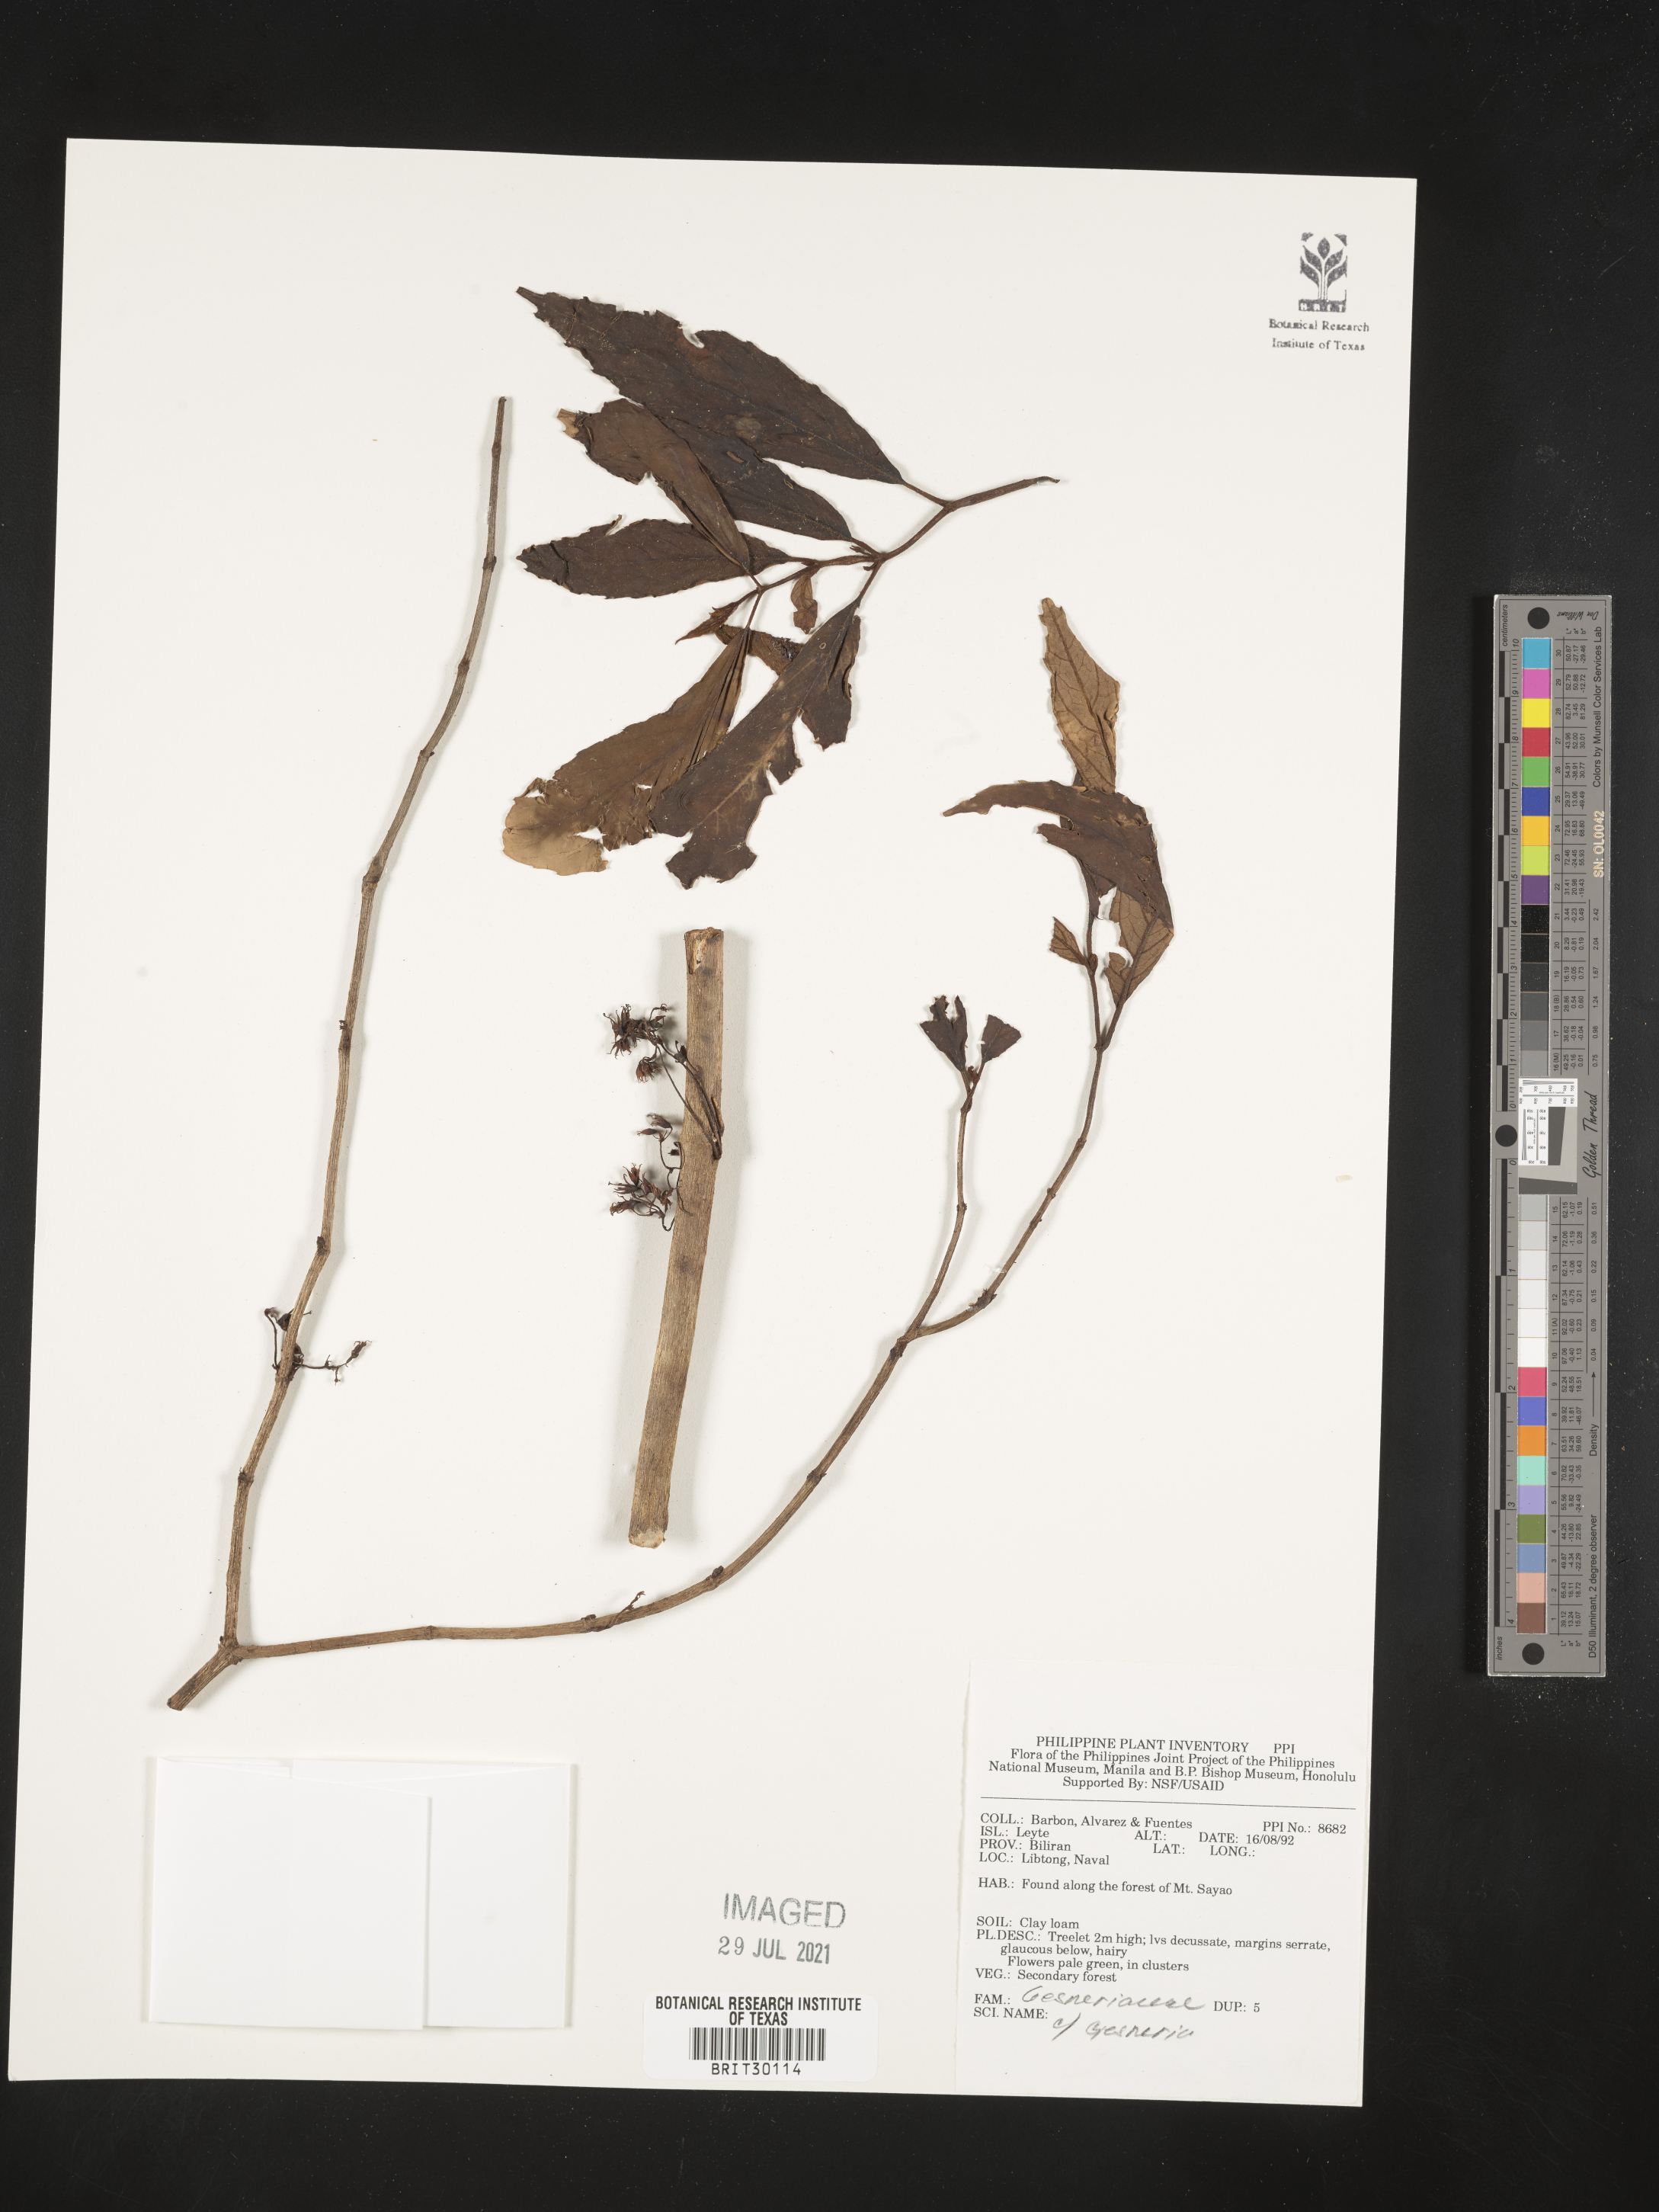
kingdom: Plantae
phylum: Tracheophyta
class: Magnoliopsida
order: Lamiales
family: Gesneriaceae
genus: Gesneria
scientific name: Gesneria
